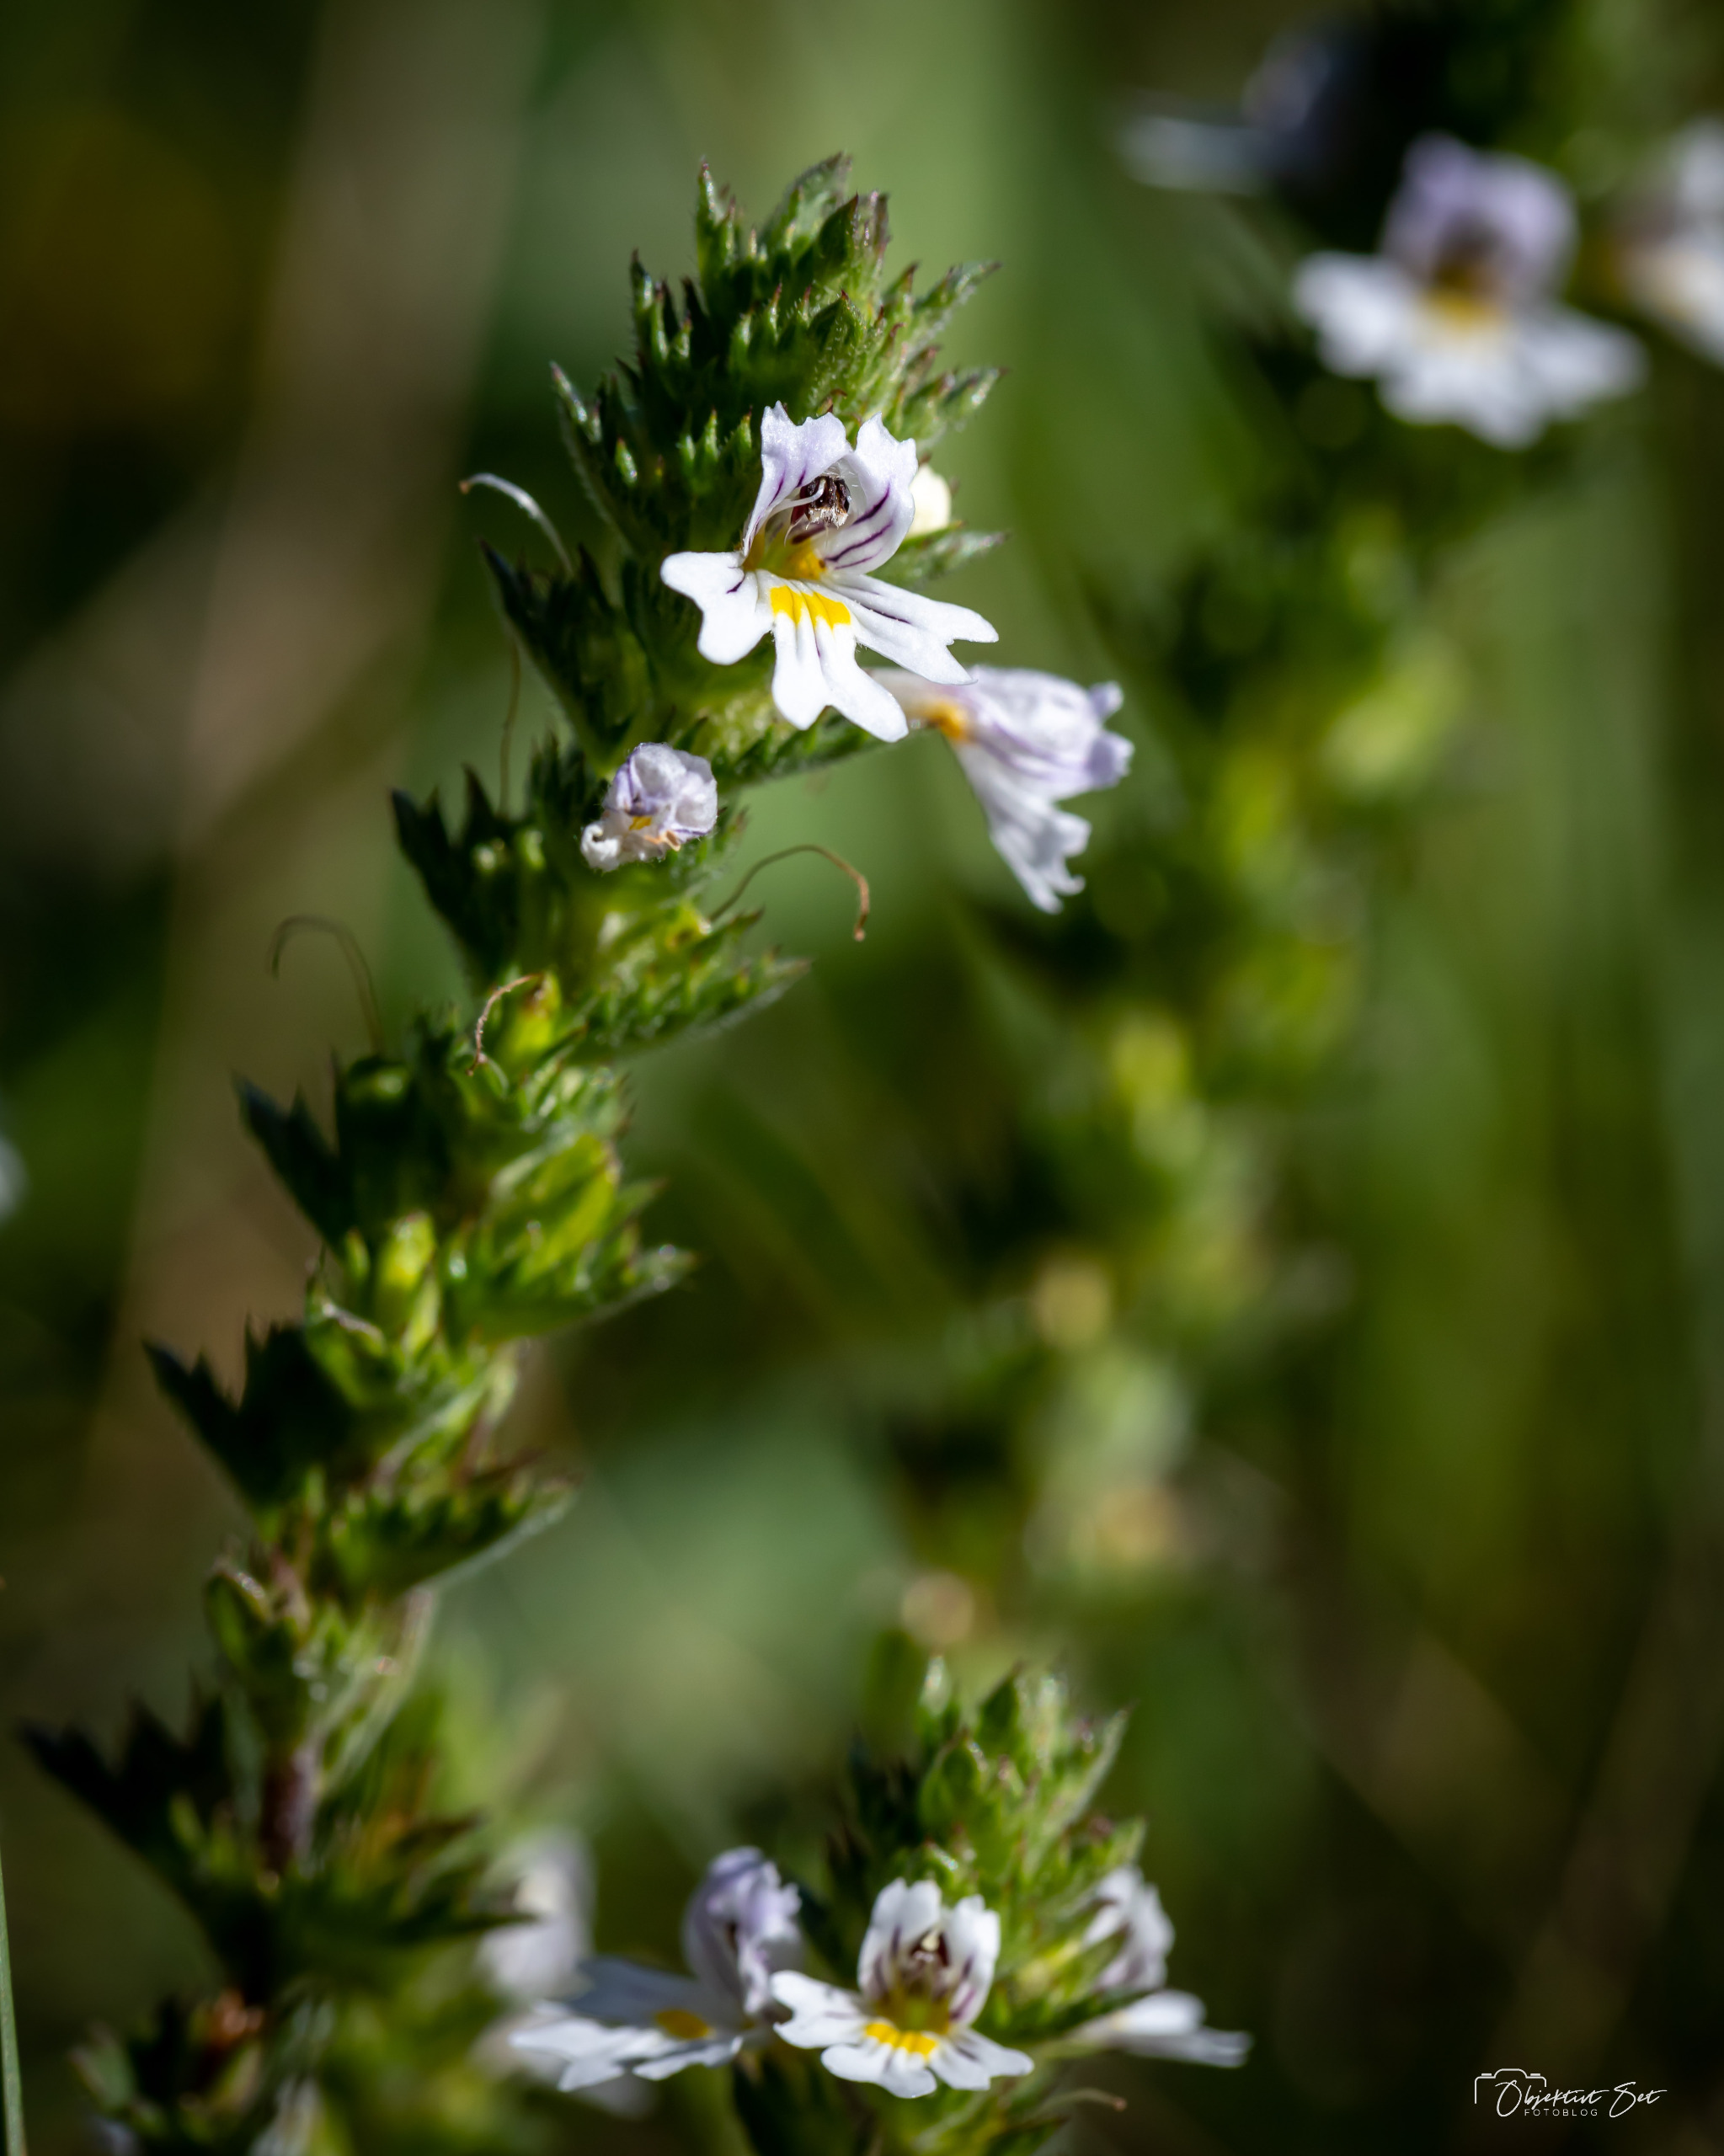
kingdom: Plantae
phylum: Tracheophyta
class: Magnoliopsida
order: Lamiales
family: Orobanchaceae
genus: Euphrasia
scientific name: Euphrasia stricta
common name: Spids øjentrøst
